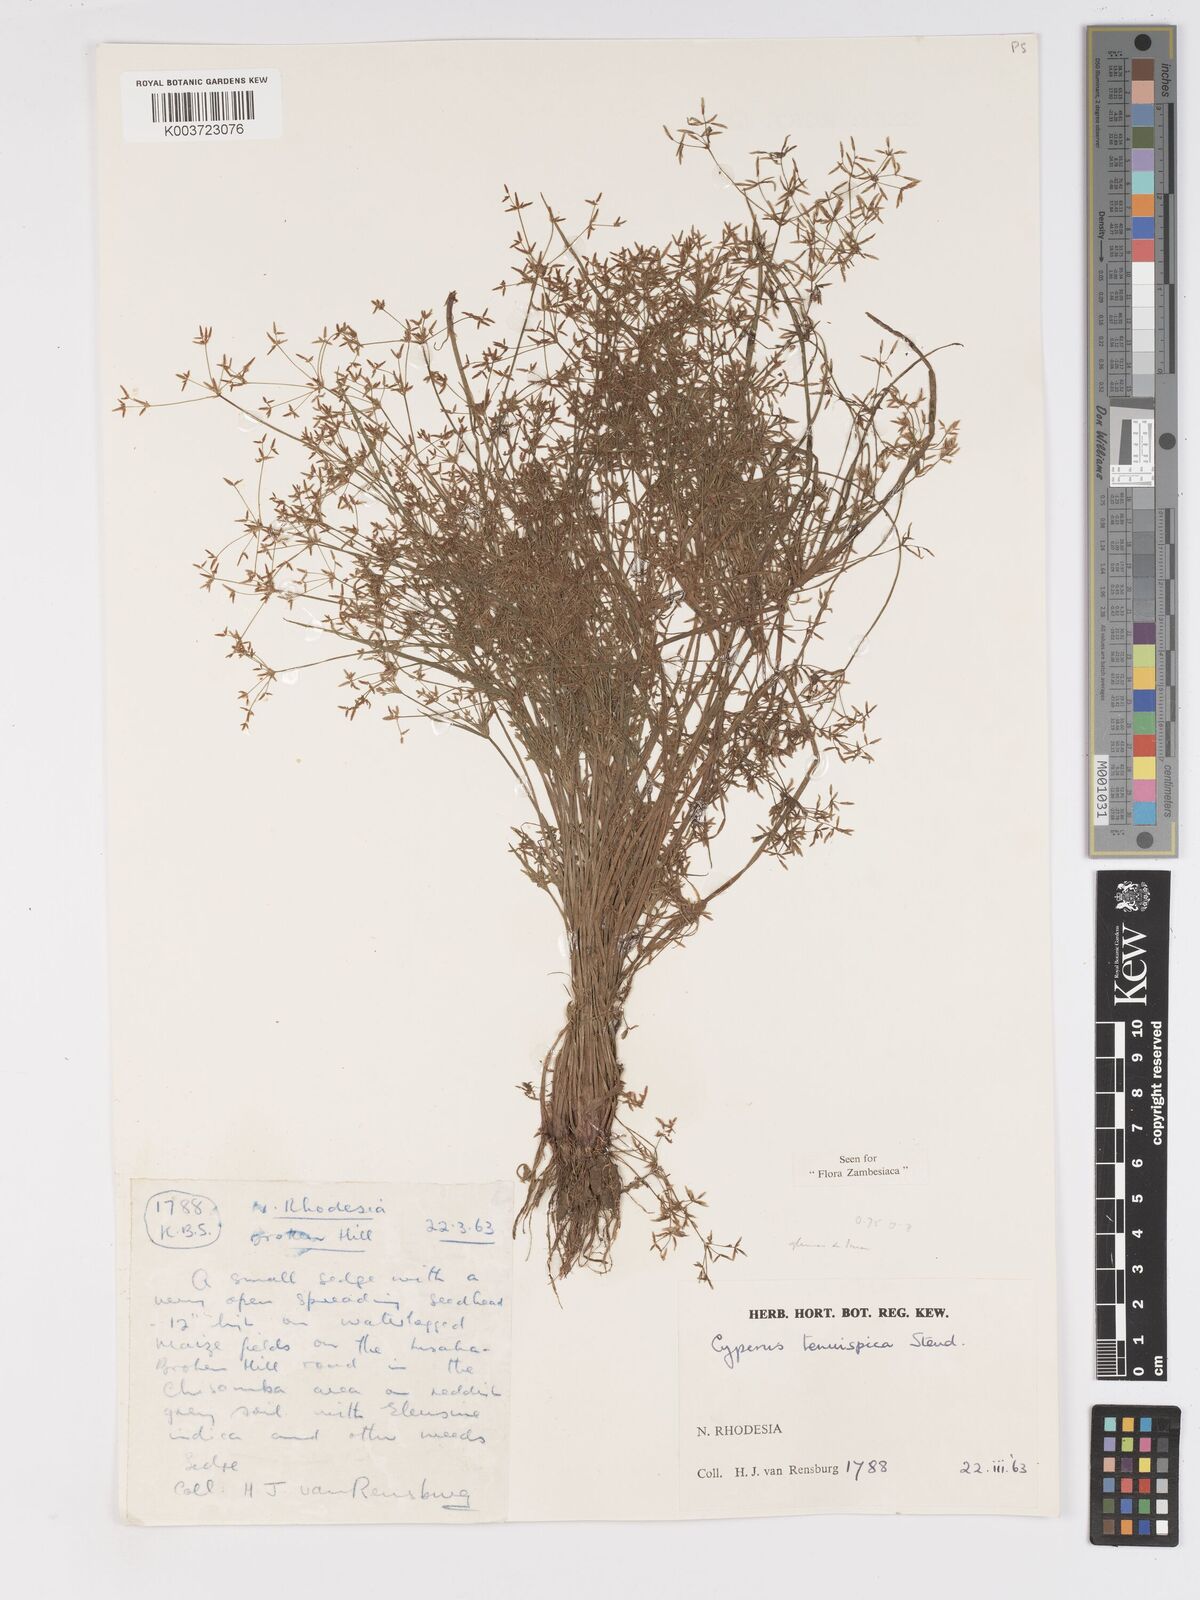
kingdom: Plantae
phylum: Tracheophyta
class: Liliopsida
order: Poales
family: Cyperaceae
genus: Cyperus
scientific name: Cyperus tenuispica
